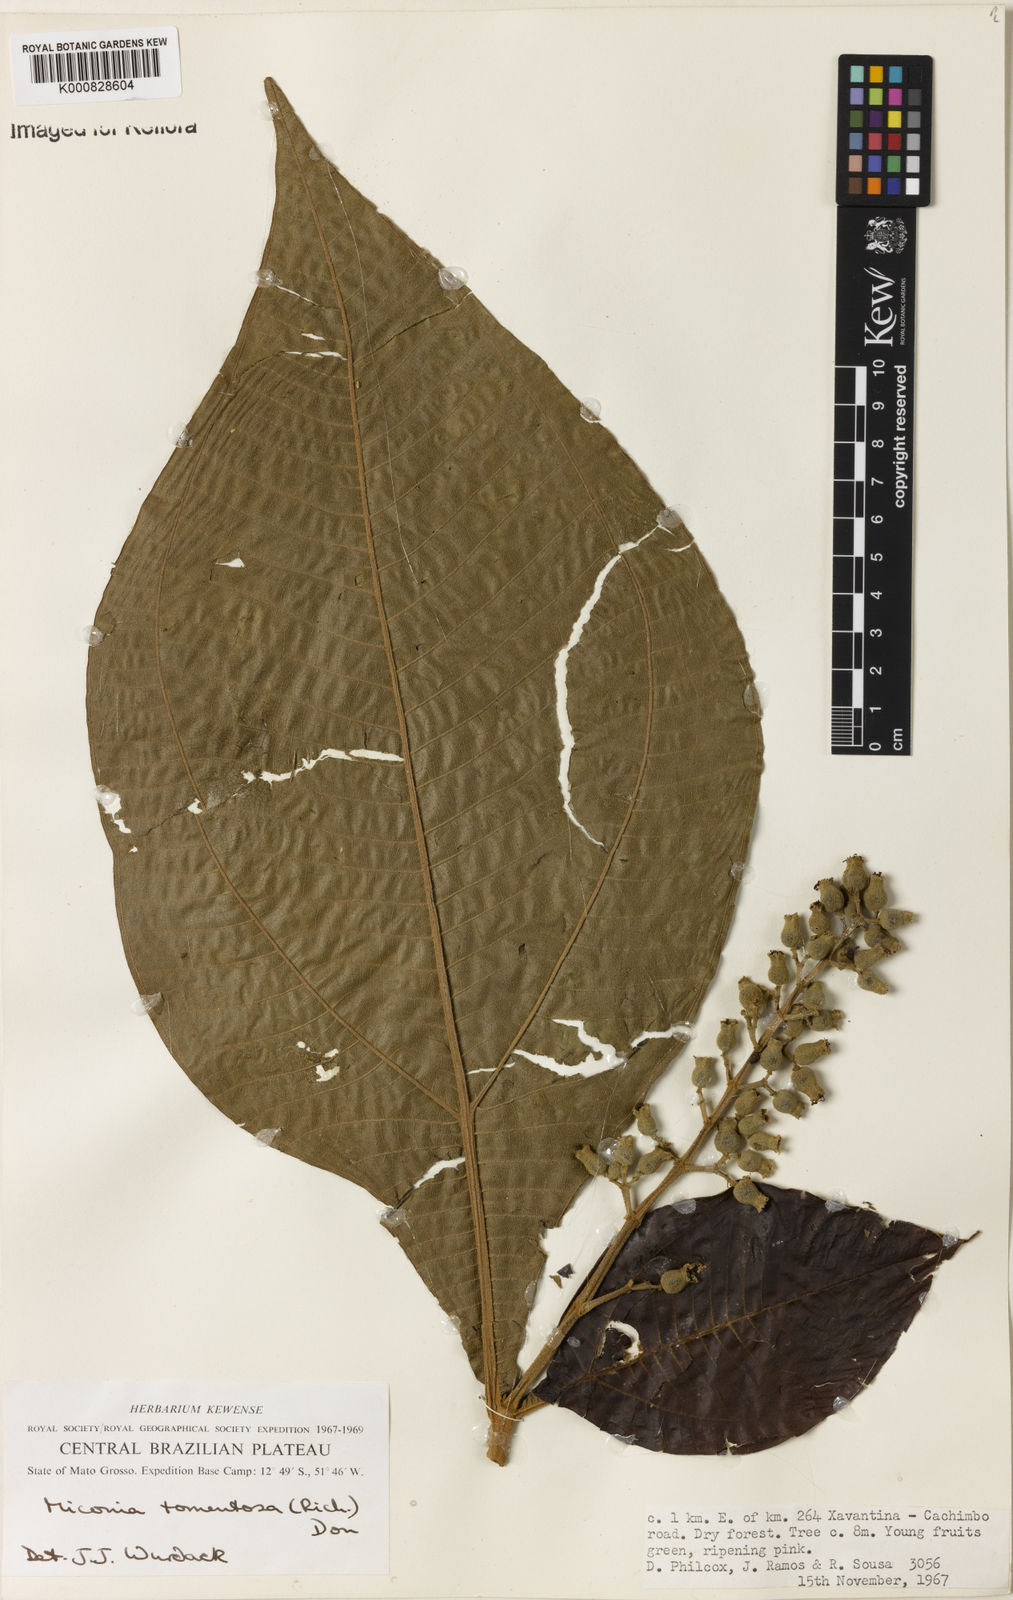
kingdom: Plantae
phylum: Tracheophyta
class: Magnoliopsida
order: Myrtales
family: Melastomataceae
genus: Miconia
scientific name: Miconia tomentosa
